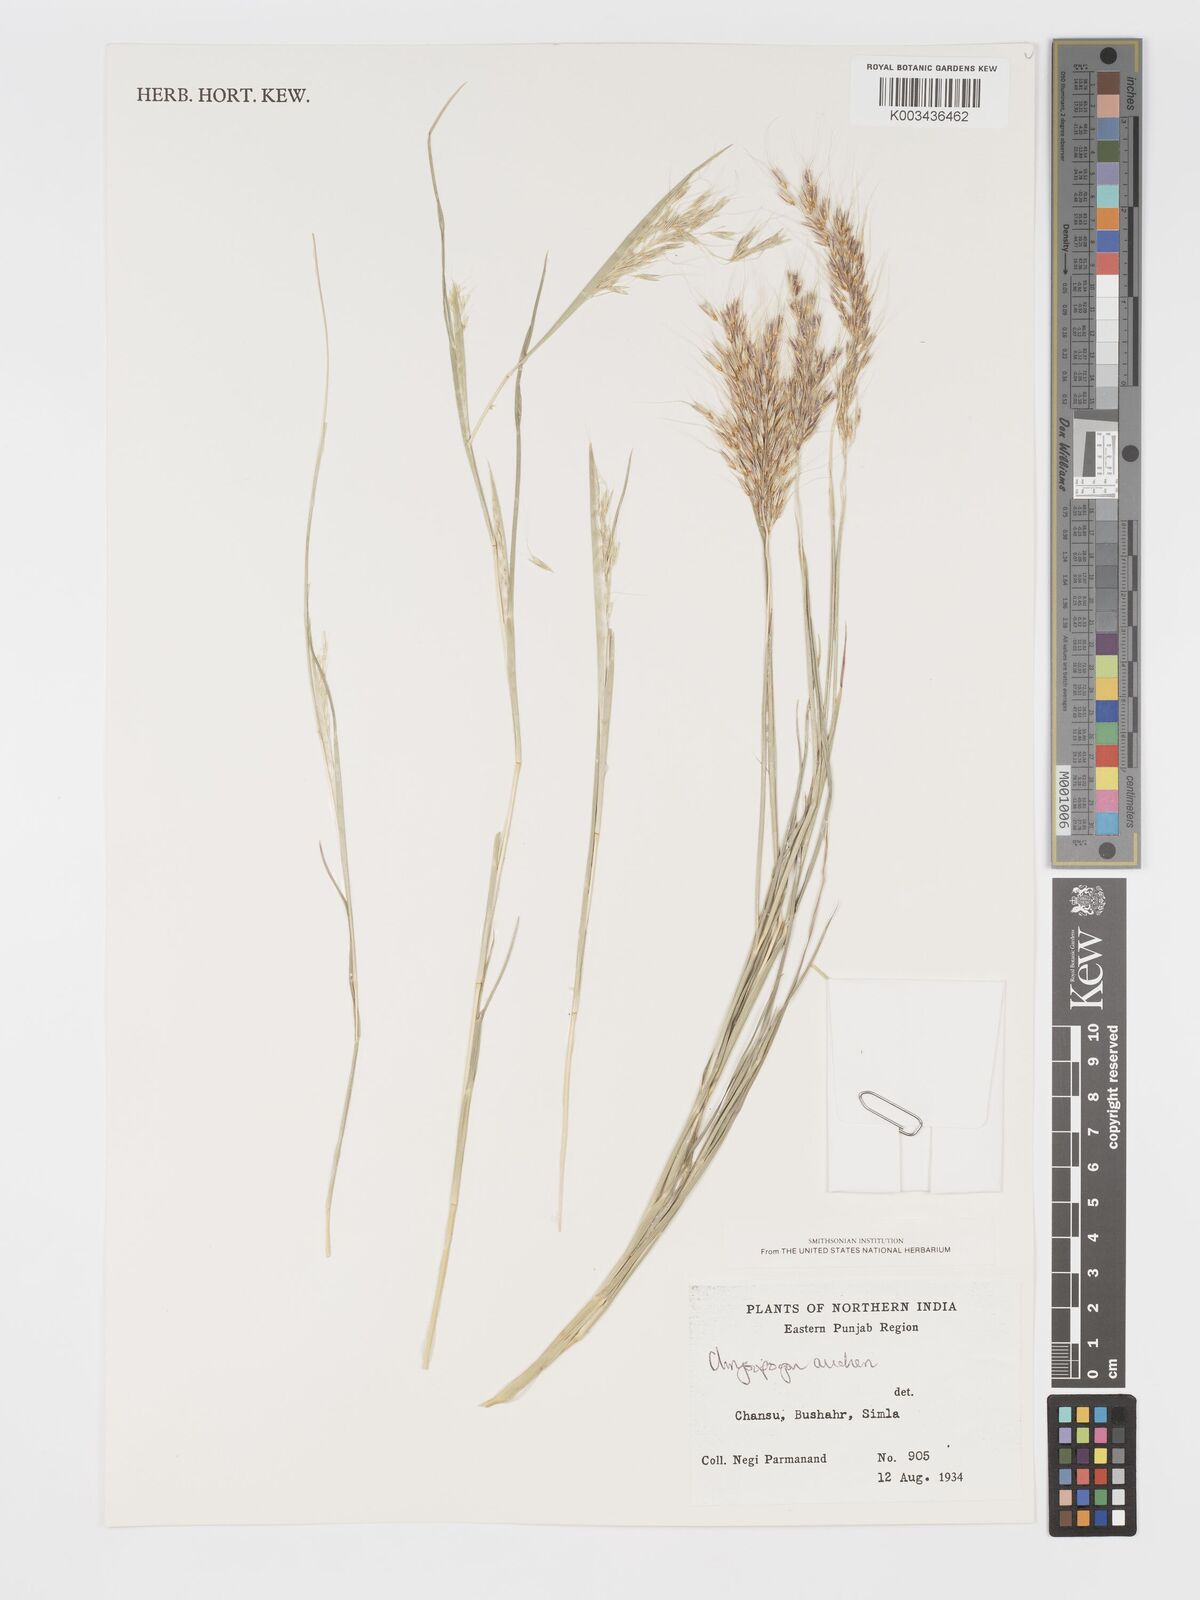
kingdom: Plantae
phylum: Tracheophyta
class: Liliopsida
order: Poales
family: Poaceae
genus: Chrysopogon
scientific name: Chrysopogon aucheri
